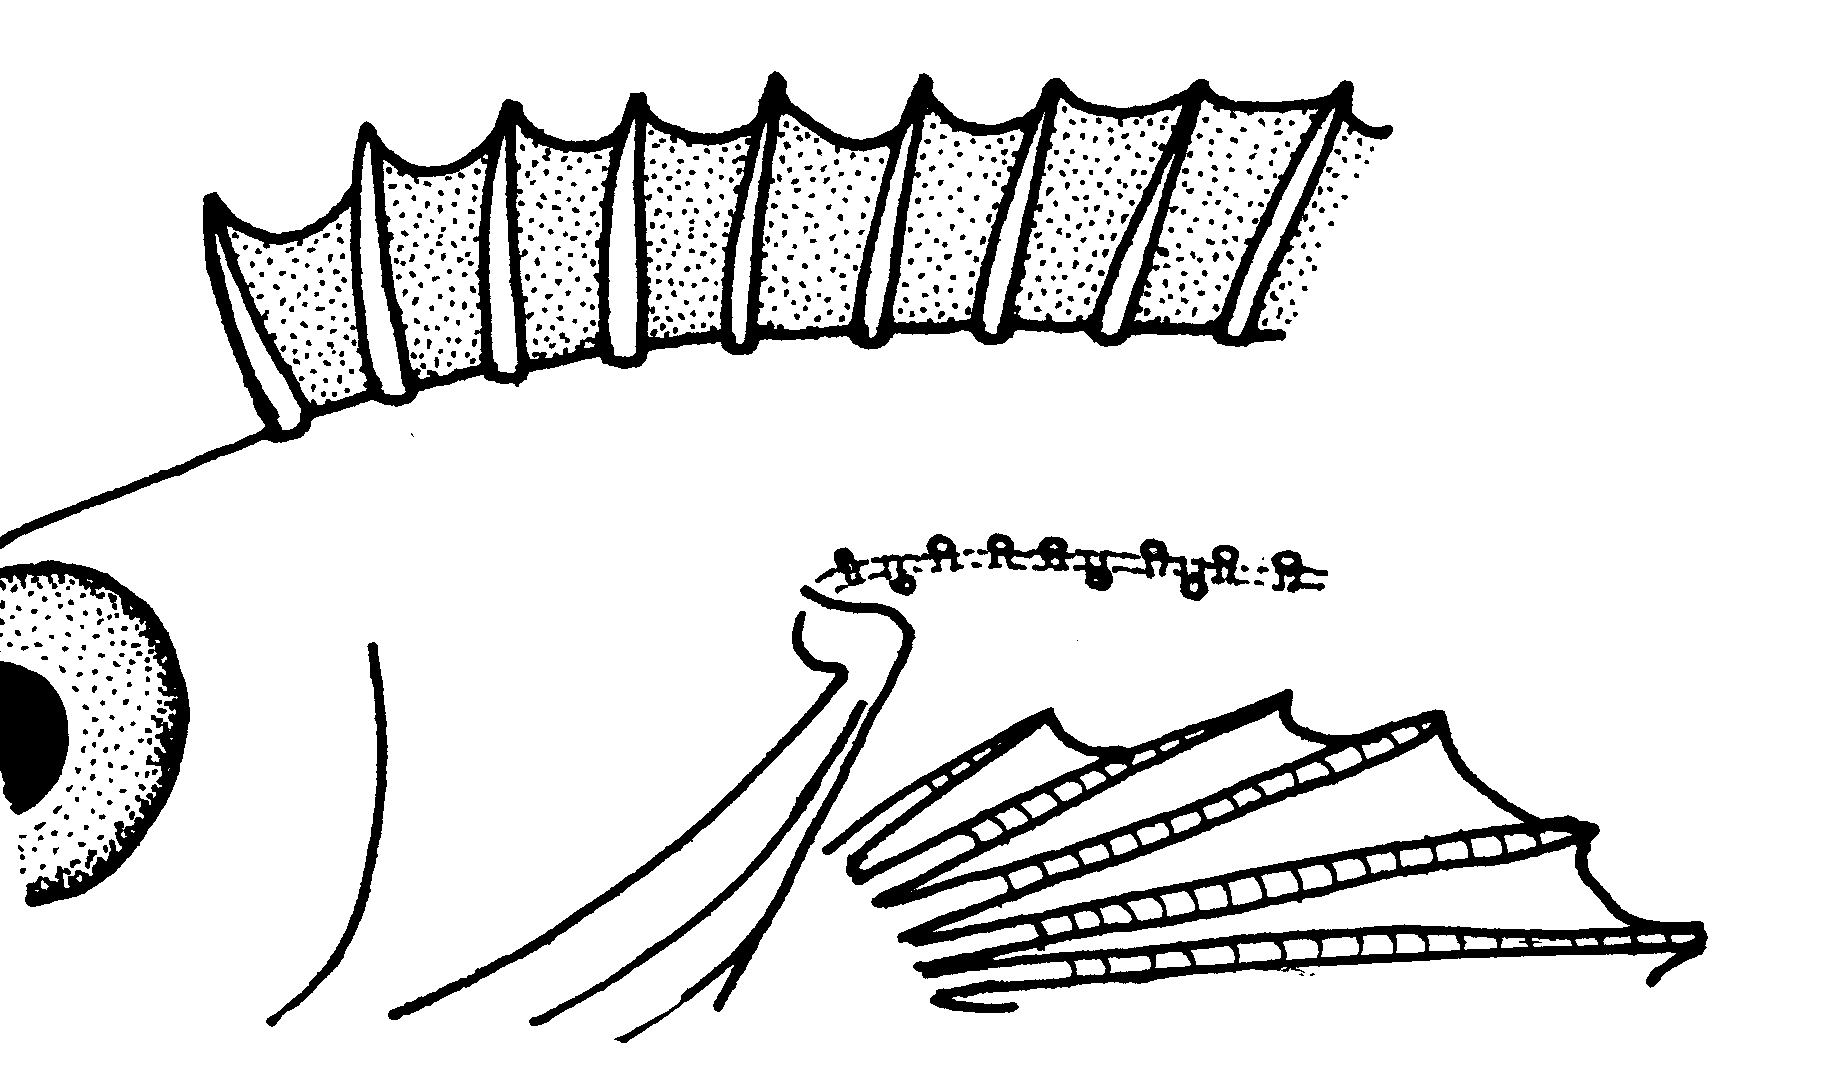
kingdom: Animalia
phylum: Chordata
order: Perciformes
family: Clinidae
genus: Pavoclinus
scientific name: Pavoclinus profundus
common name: Deepwater klipfish
